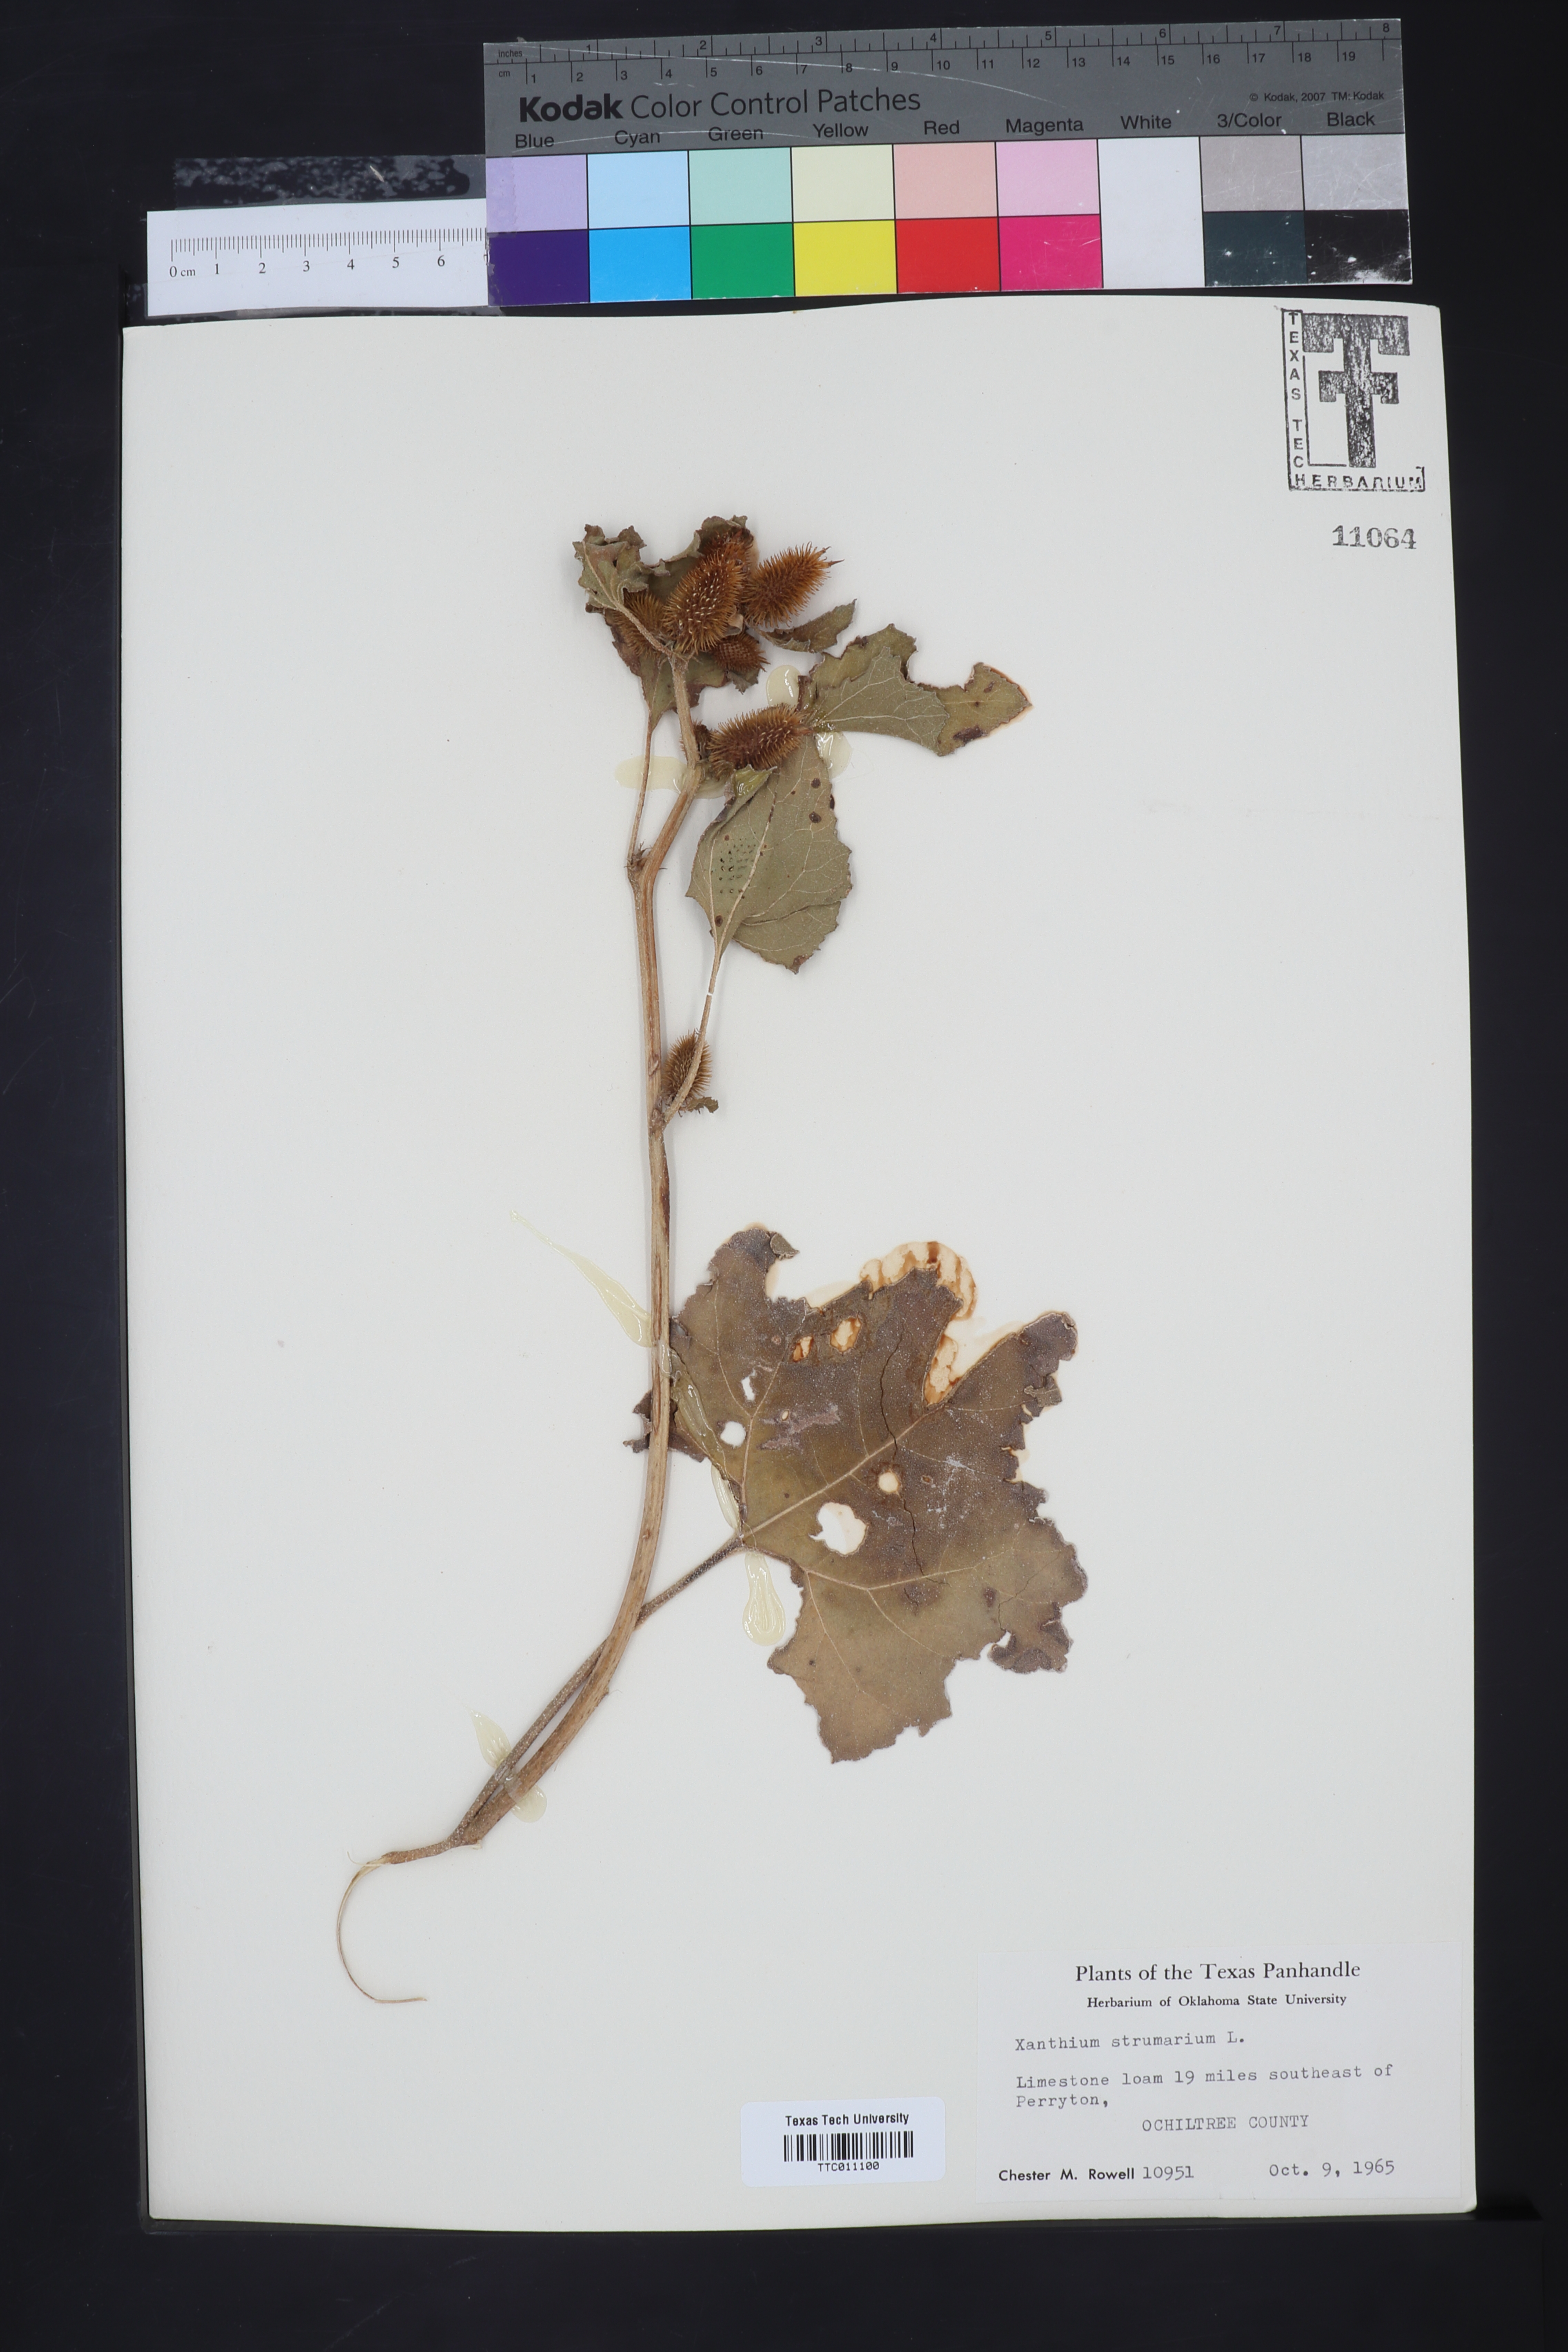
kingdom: Plantae
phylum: Tracheophyta
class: Magnoliopsida
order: Asterales
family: Asteraceae
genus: Xanthium
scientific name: Xanthium strumarium
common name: Rough cocklebur
